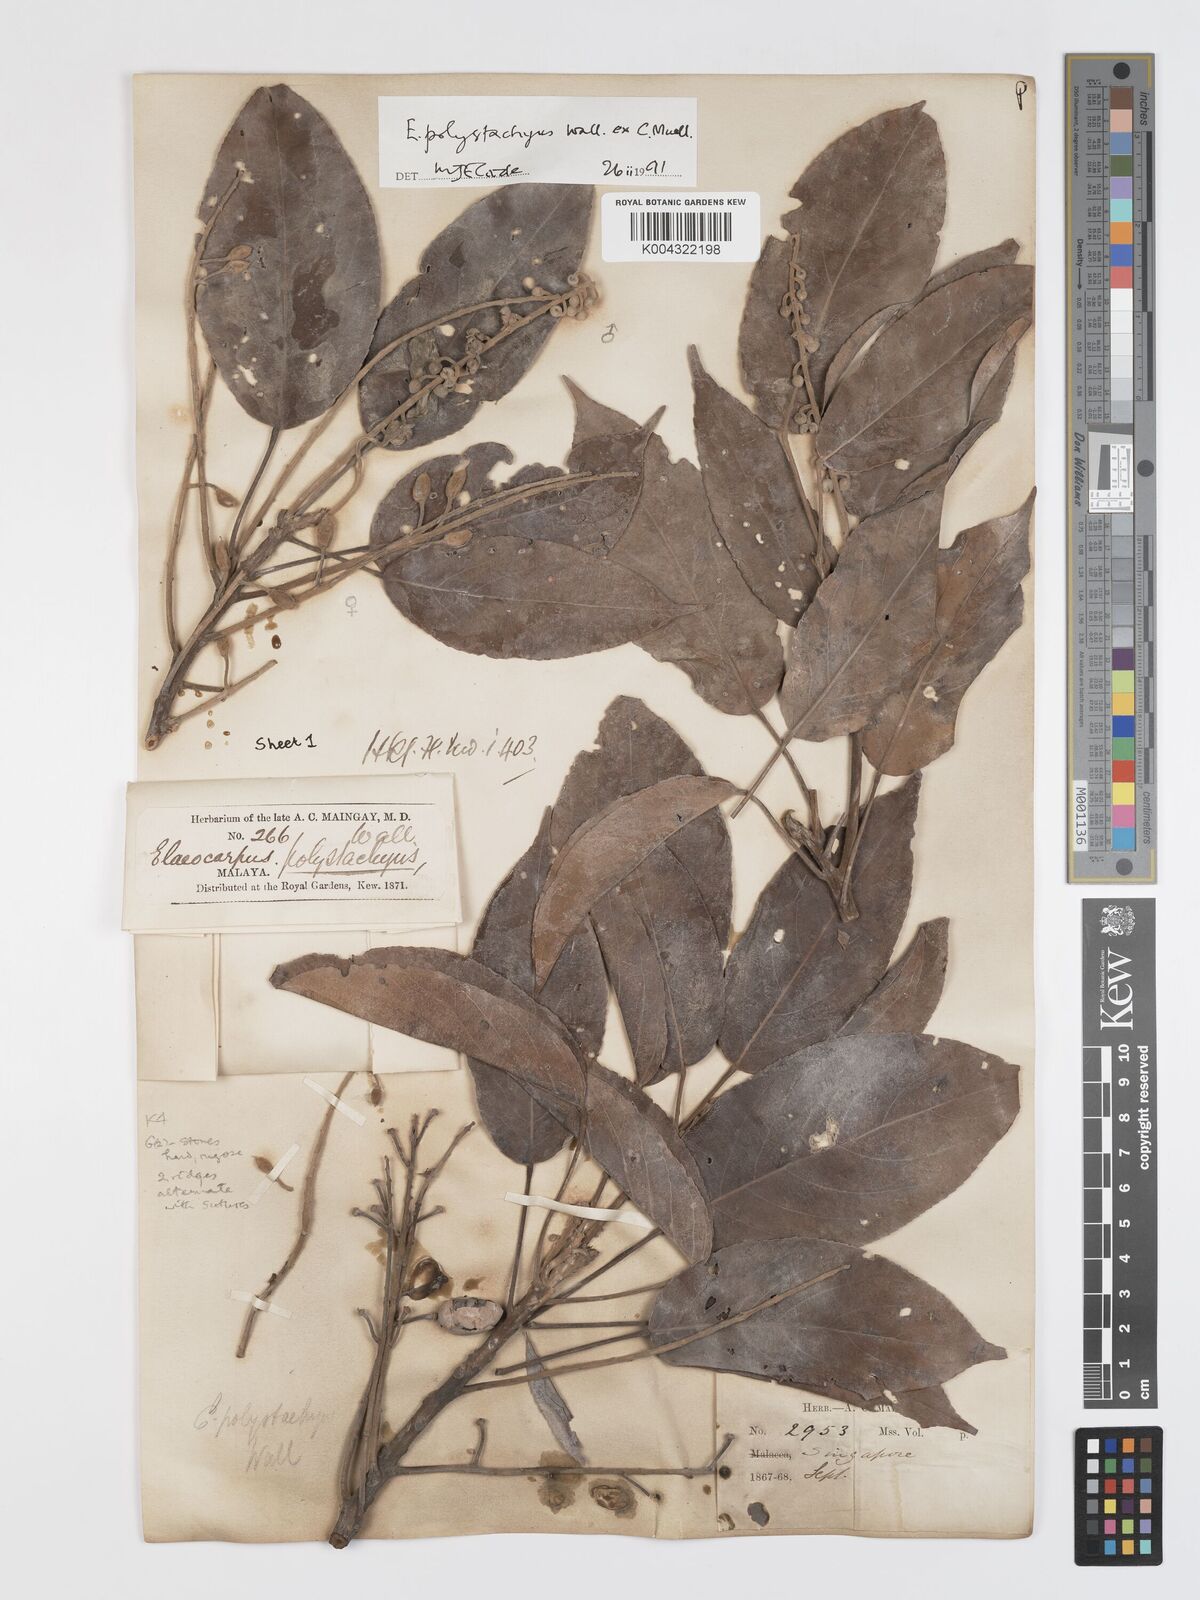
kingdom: Plantae
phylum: Tracheophyta
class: Magnoliopsida
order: Oxalidales
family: Elaeocarpaceae
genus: Elaeocarpus
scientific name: Elaeocarpus polystachyus
